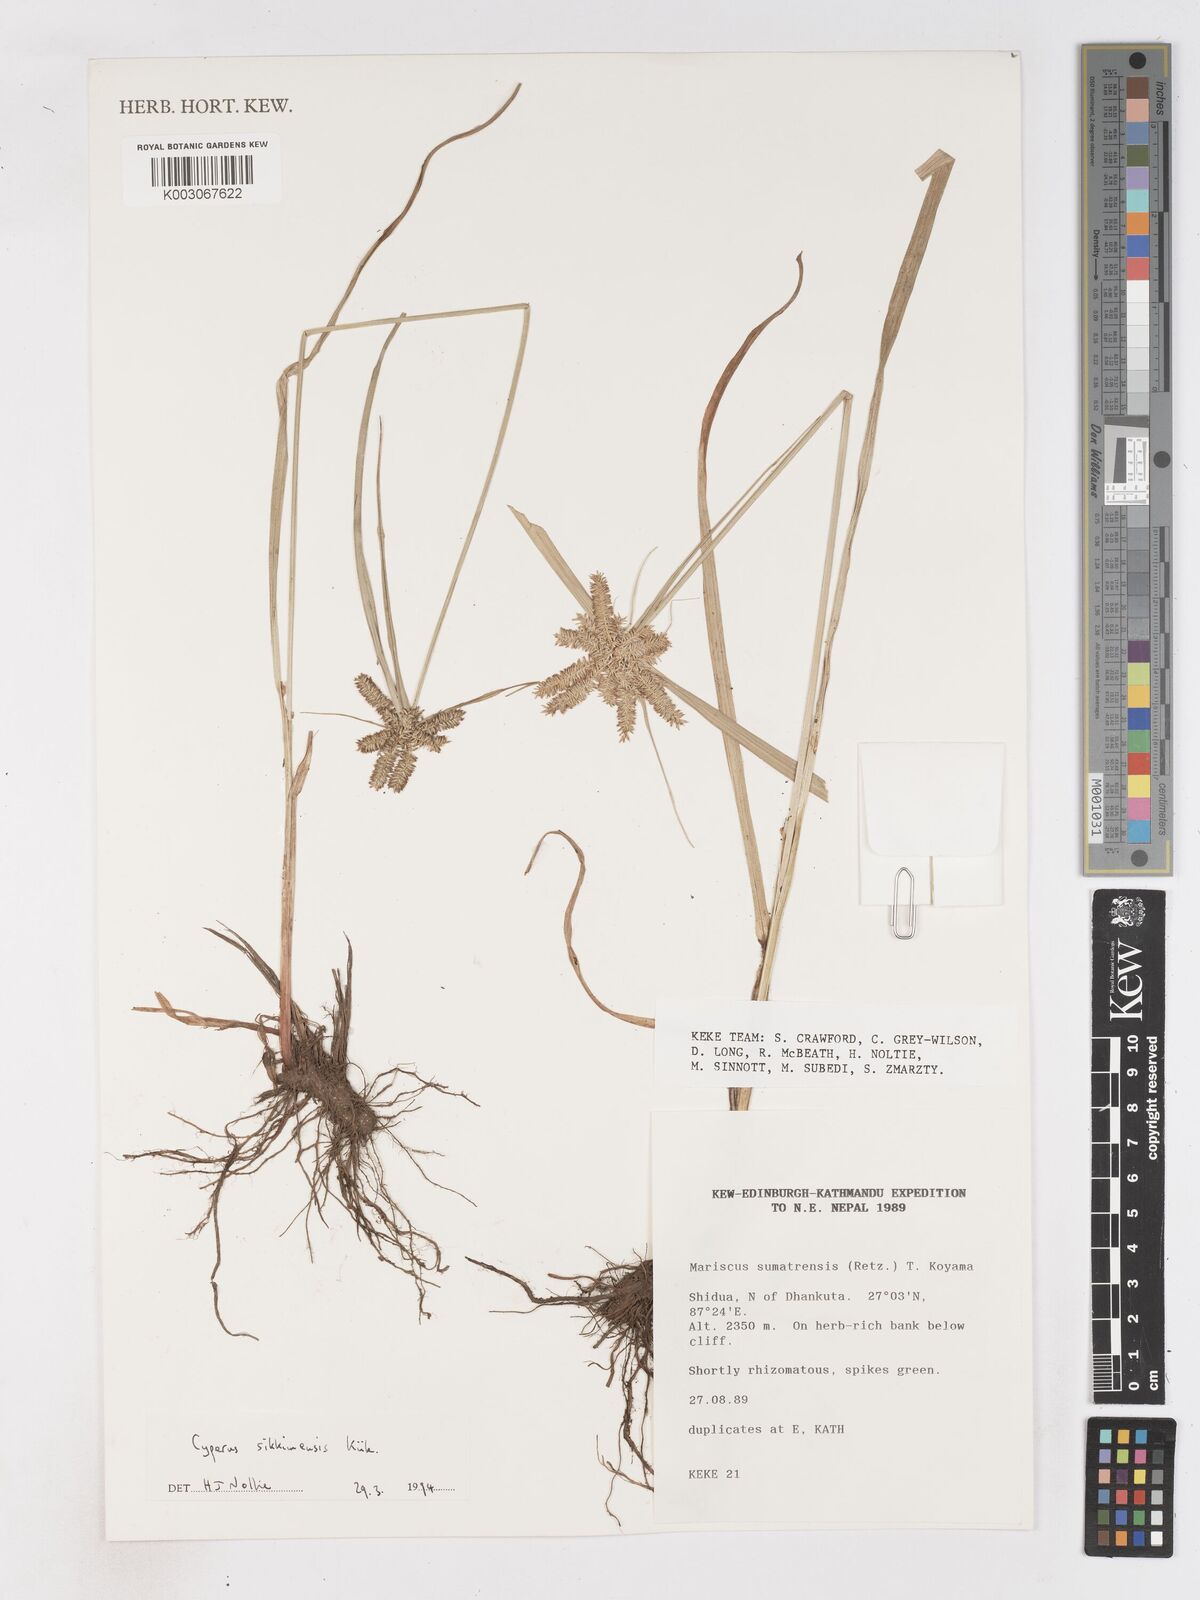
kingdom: Plantae
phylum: Tracheophyta
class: Liliopsida
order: Poales
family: Cyperaceae
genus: Cyperus
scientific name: Cyperus sikkimensis
